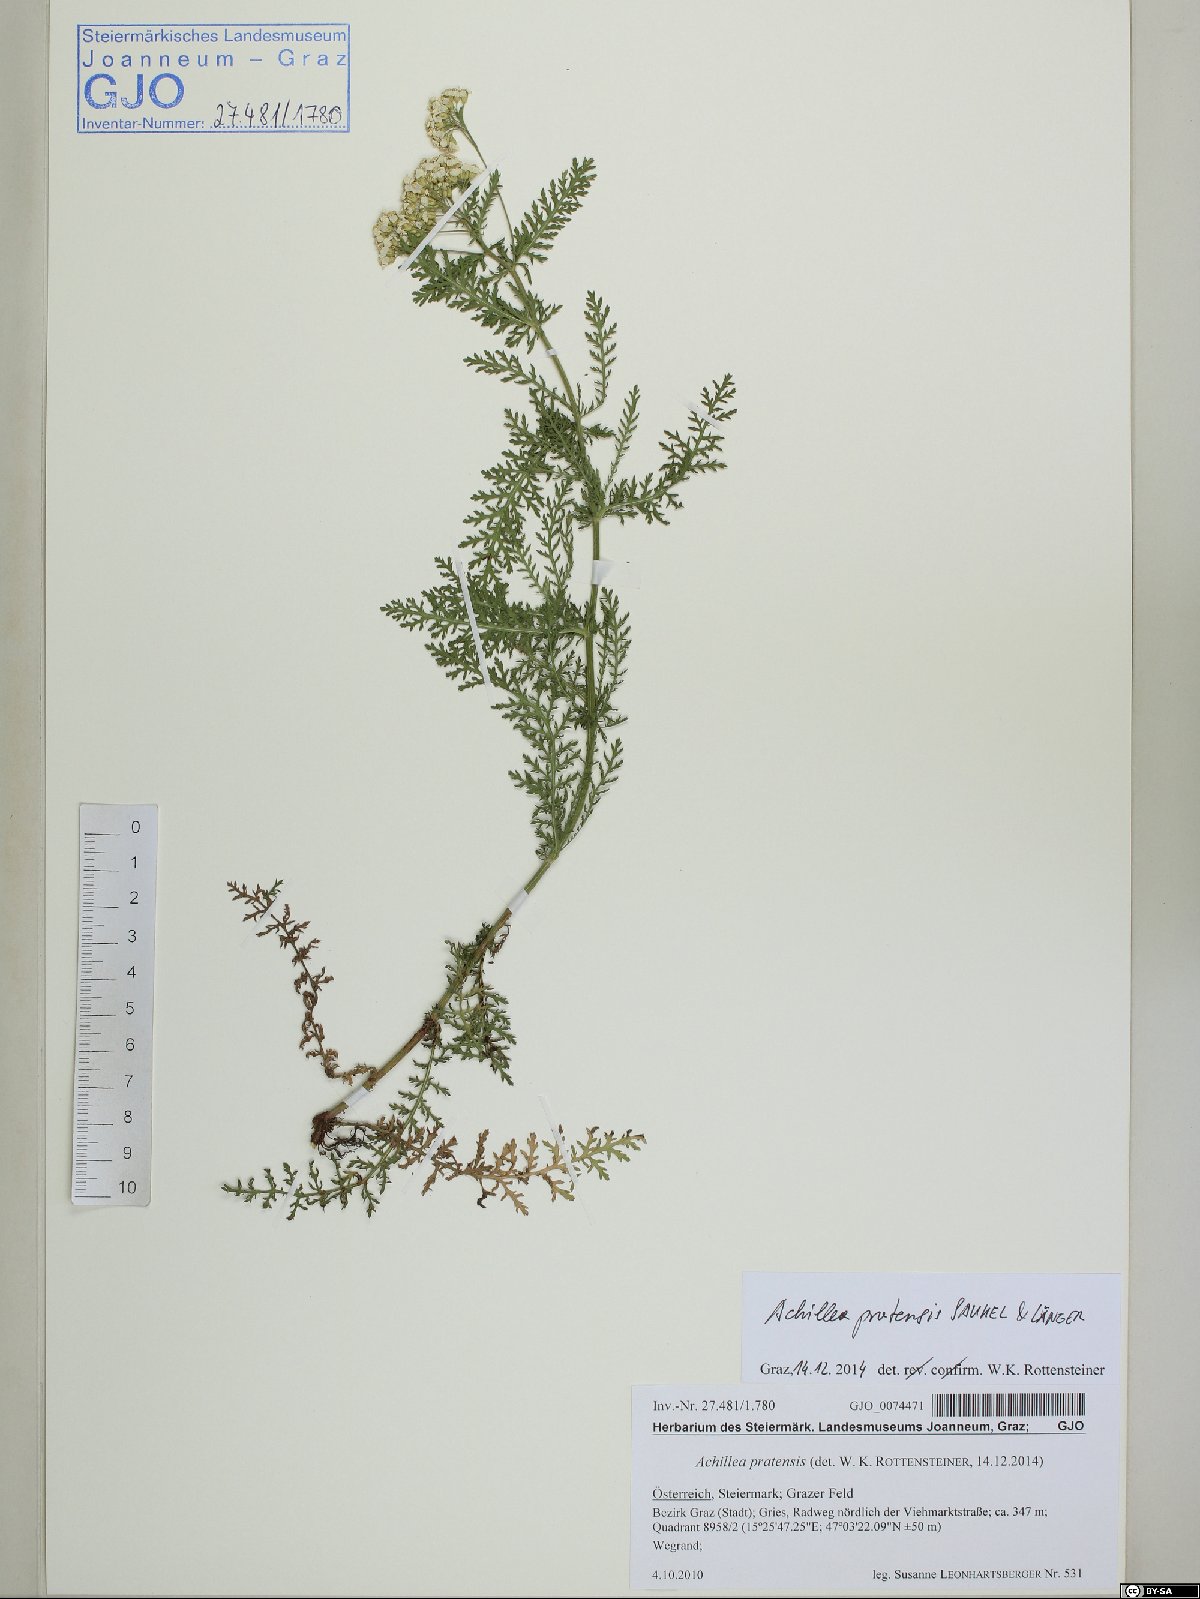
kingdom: Plantae
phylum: Tracheophyta
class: Magnoliopsida
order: Asterales
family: Asteraceae
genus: Achillea
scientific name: Achillea pratensis
